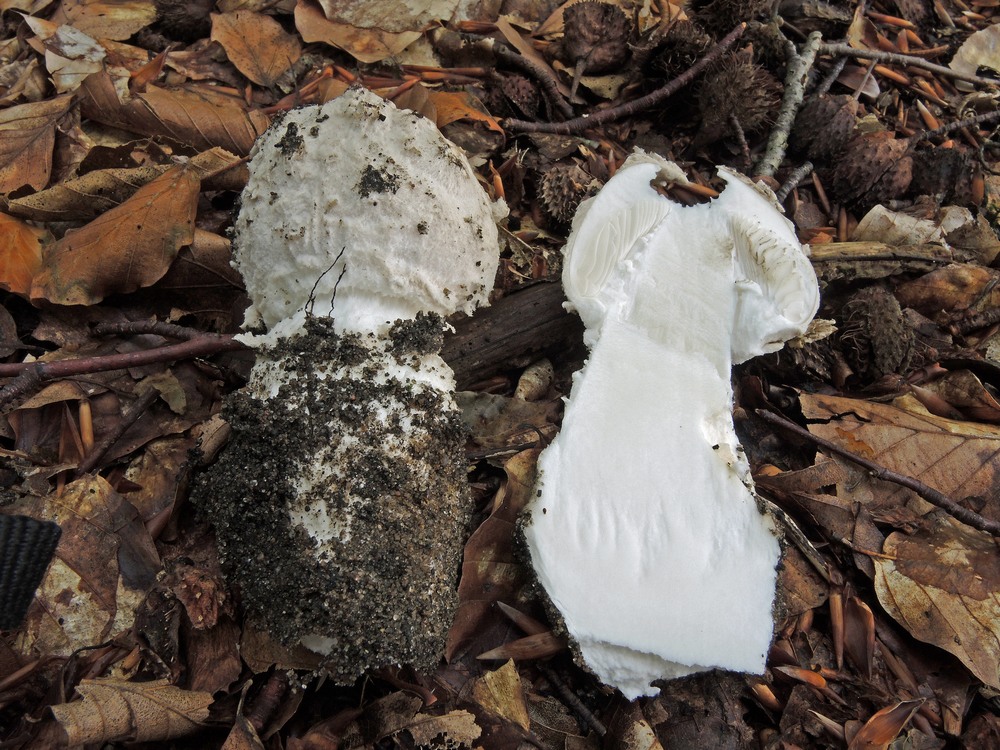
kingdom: Fungi
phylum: Basidiomycota
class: Agaricomycetes
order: Agaricales
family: Amanitaceae
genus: Amanita
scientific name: Amanita
